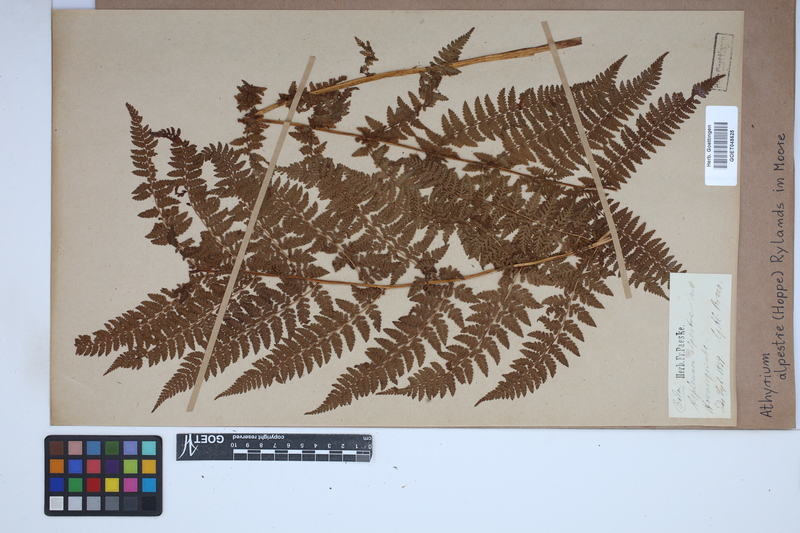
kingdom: Plantae
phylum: Tracheophyta
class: Polypodiopsida
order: Polypodiales
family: Athyriaceae
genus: Pseudathyrium
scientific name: Pseudathyrium alpestre
